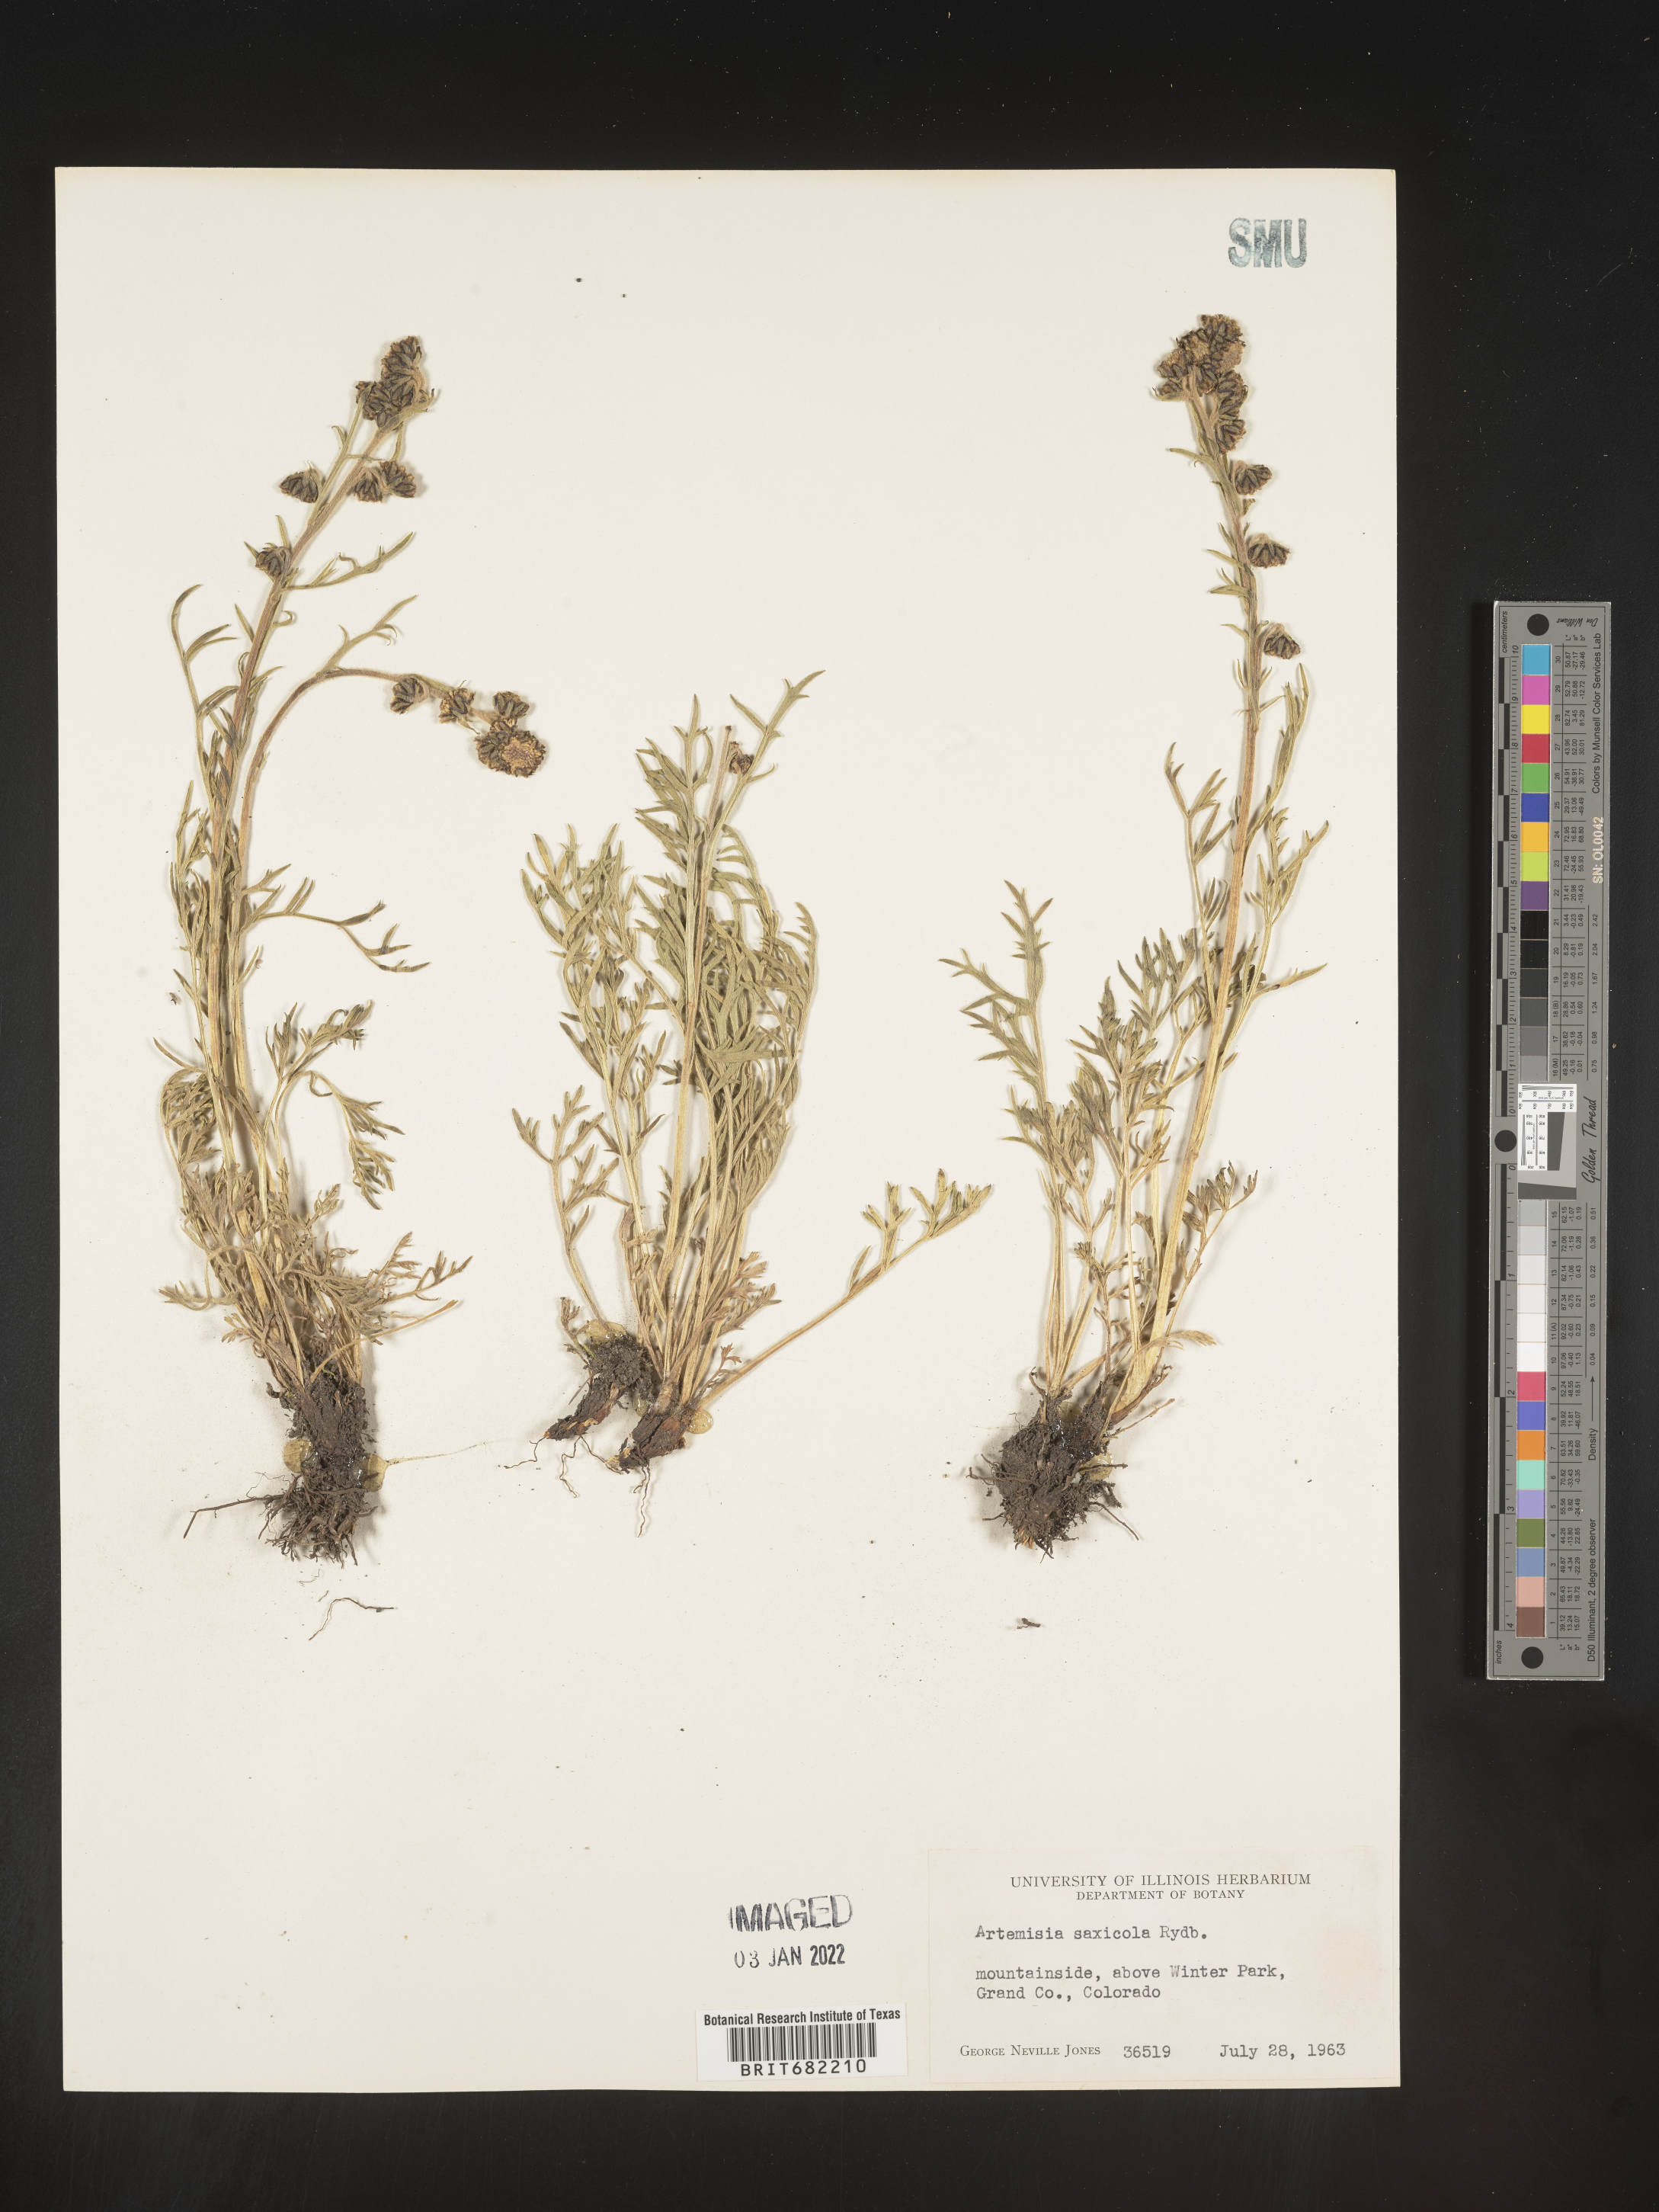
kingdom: Plantae
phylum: Tracheophyta
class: Magnoliopsida
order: Asterales
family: Asteraceae
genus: Artemisia
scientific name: Artemisia scopulorum
